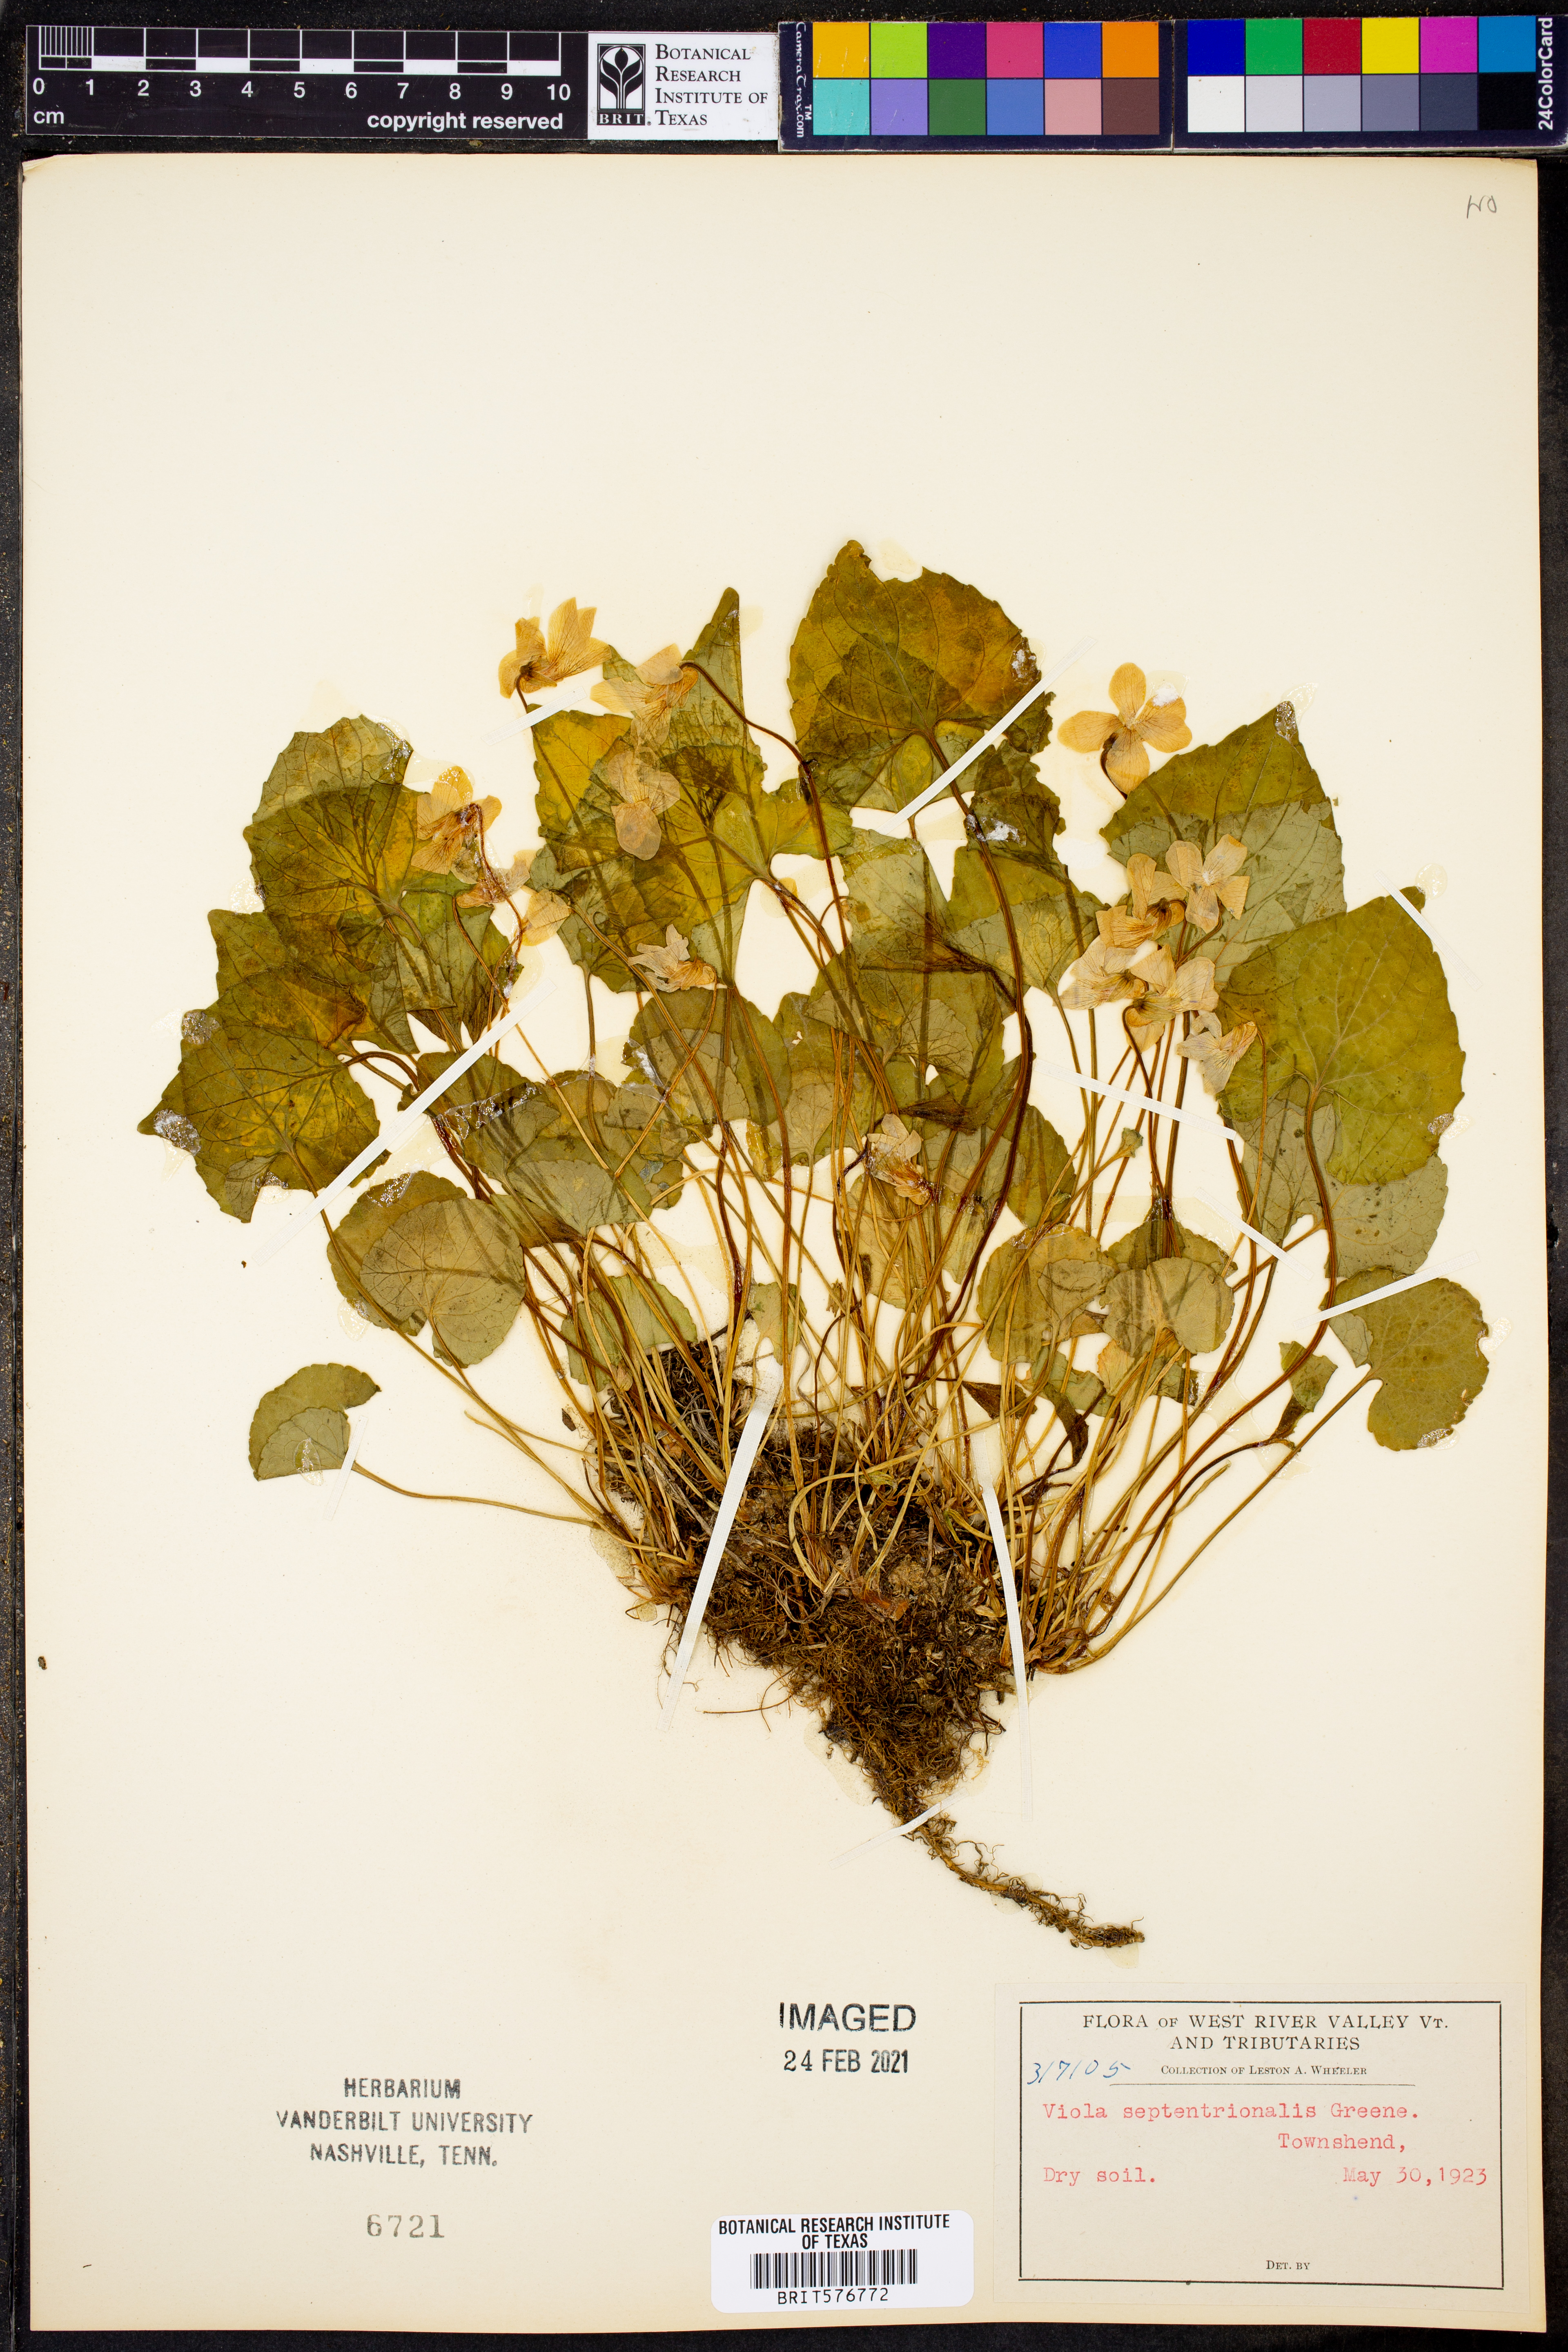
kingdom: Plantae
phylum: Tracheophyta
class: Magnoliopsida
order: Malpighiales
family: Violaceae
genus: Viola
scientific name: Viola septentrionalis
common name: Northern woodland violet
